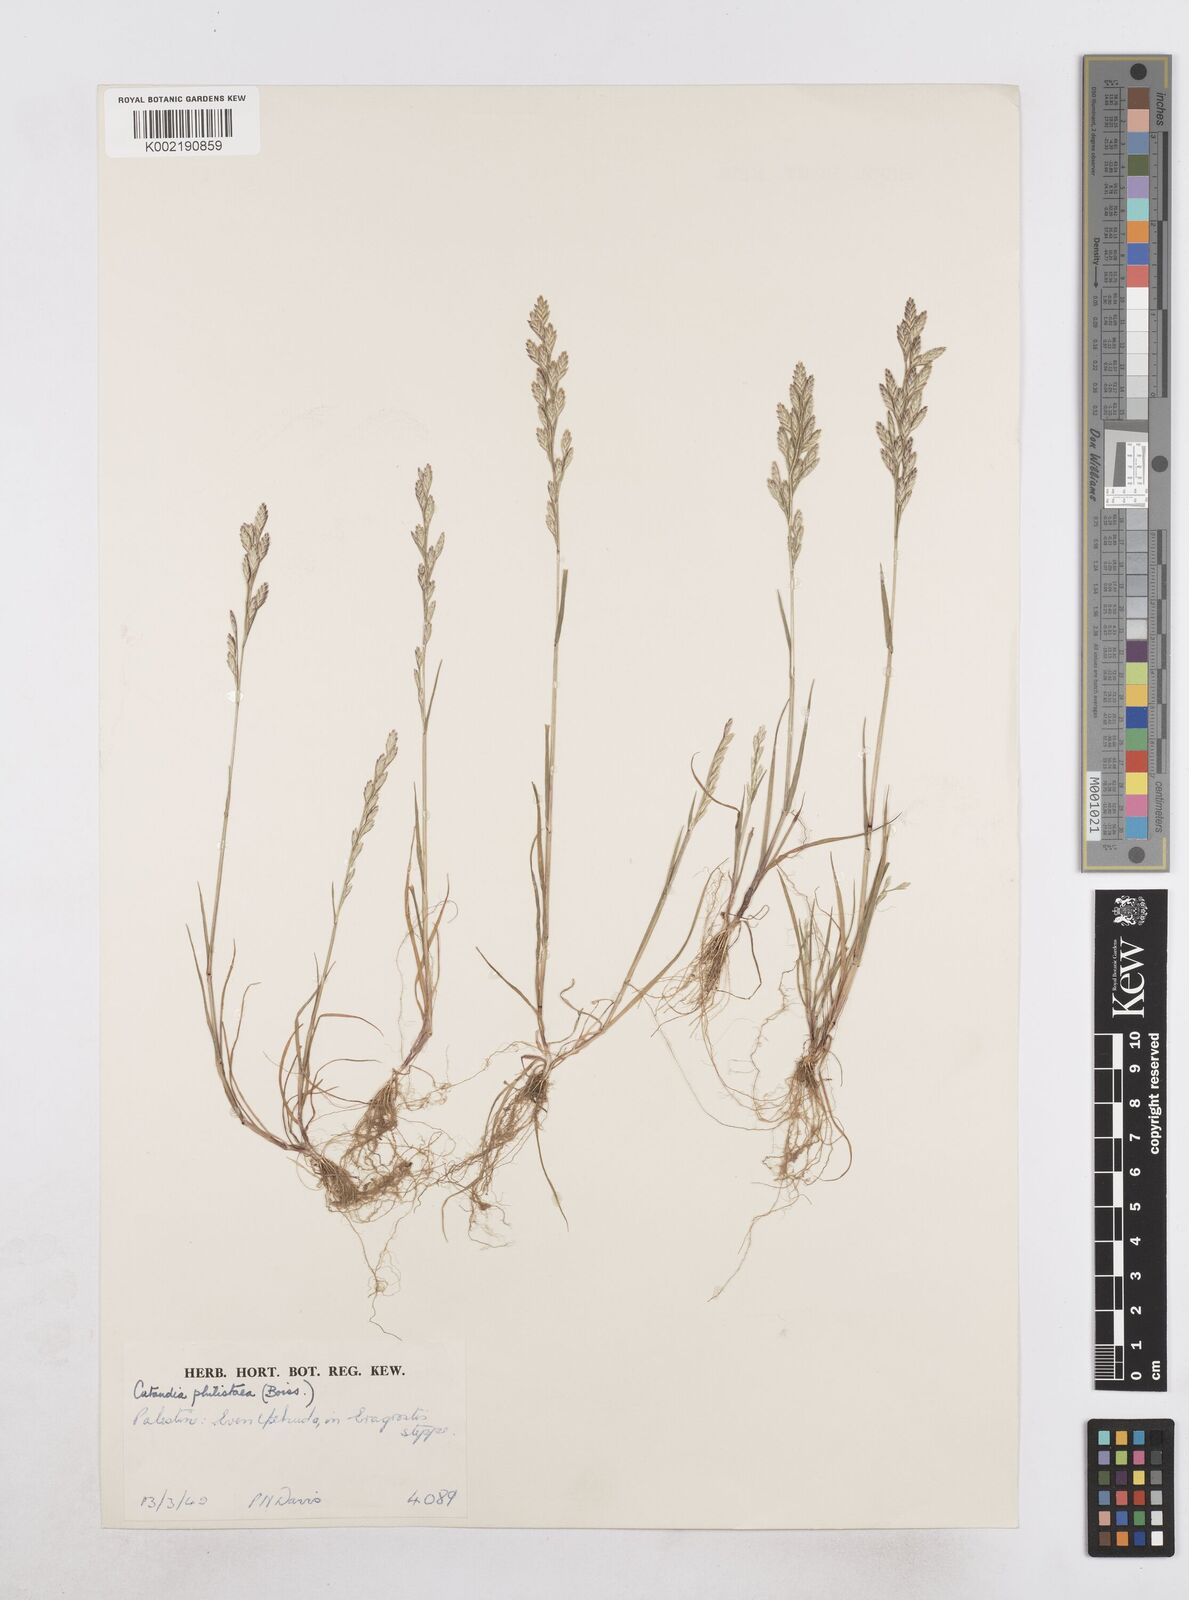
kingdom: Plantae
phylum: Tracheophyta
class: Liliopsida
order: Poales
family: Poaceae
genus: Desmazeria
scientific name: Desmazeria philistaea
